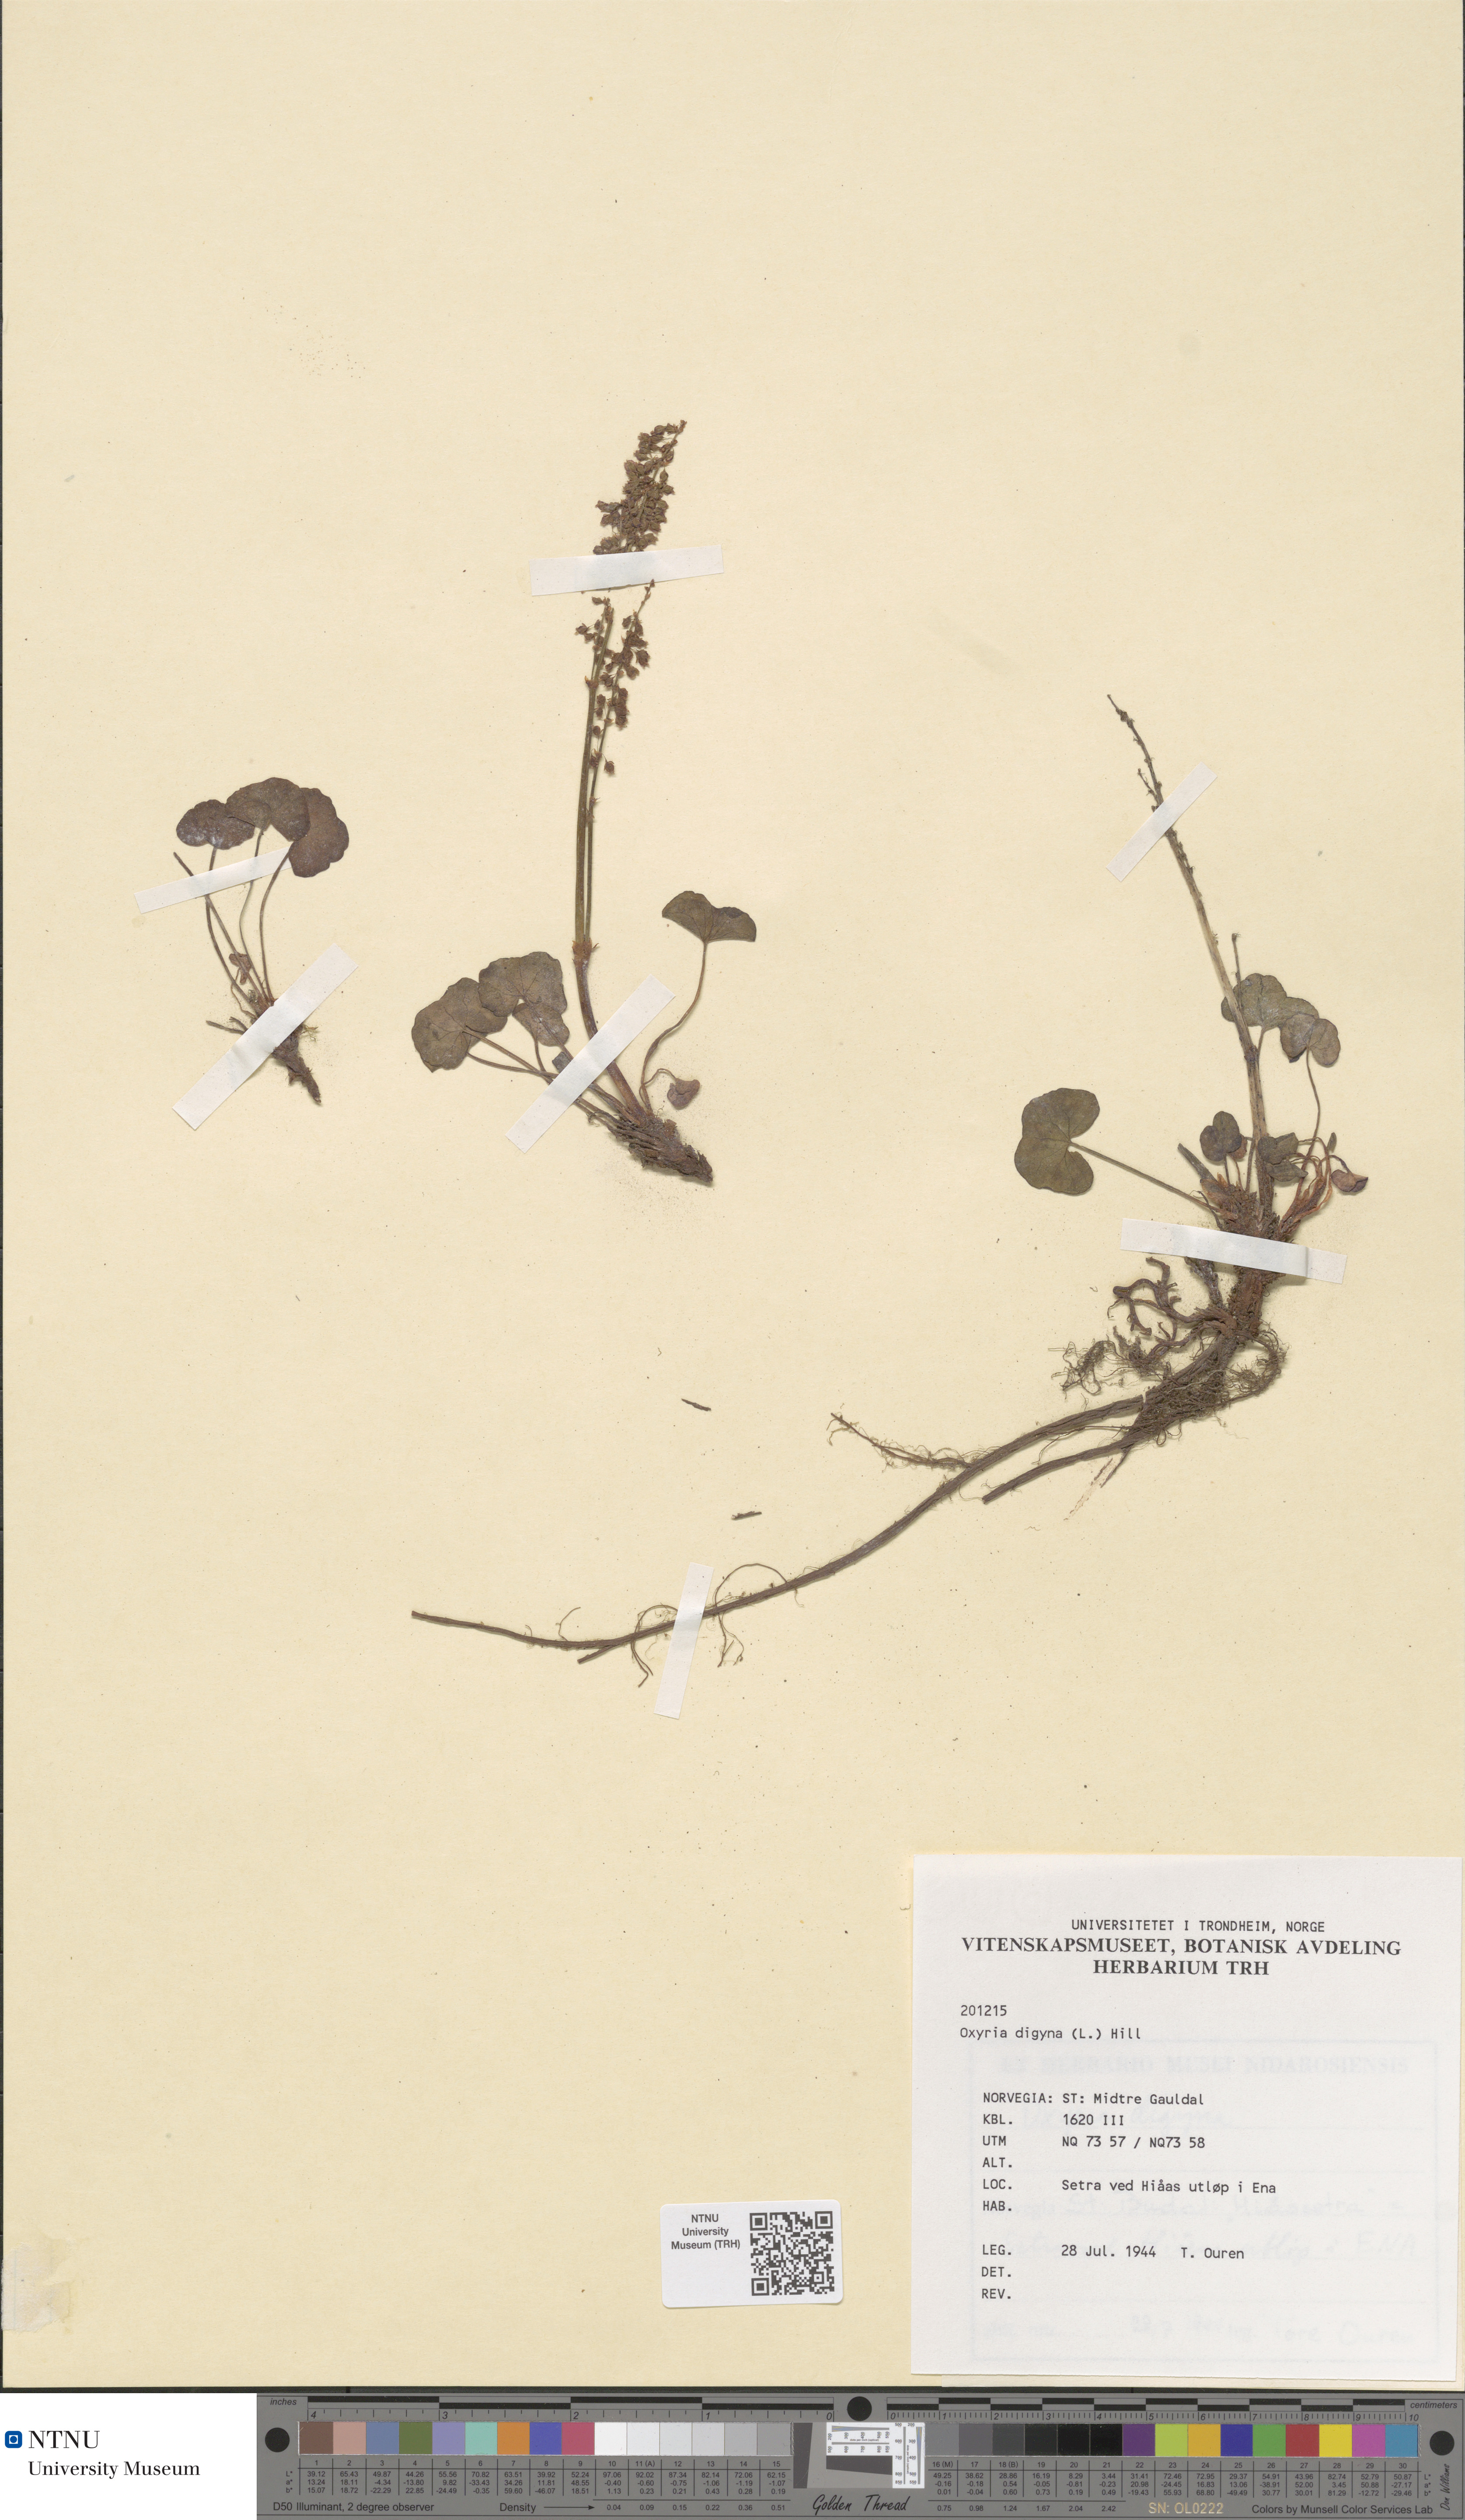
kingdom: Plantae
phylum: Tracheophyta
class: Magnoliopsida
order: Caryophyllales
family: Polygonaceae
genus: Oxyria
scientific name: Oxyria digyna
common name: Alpine mountain-sorrel
